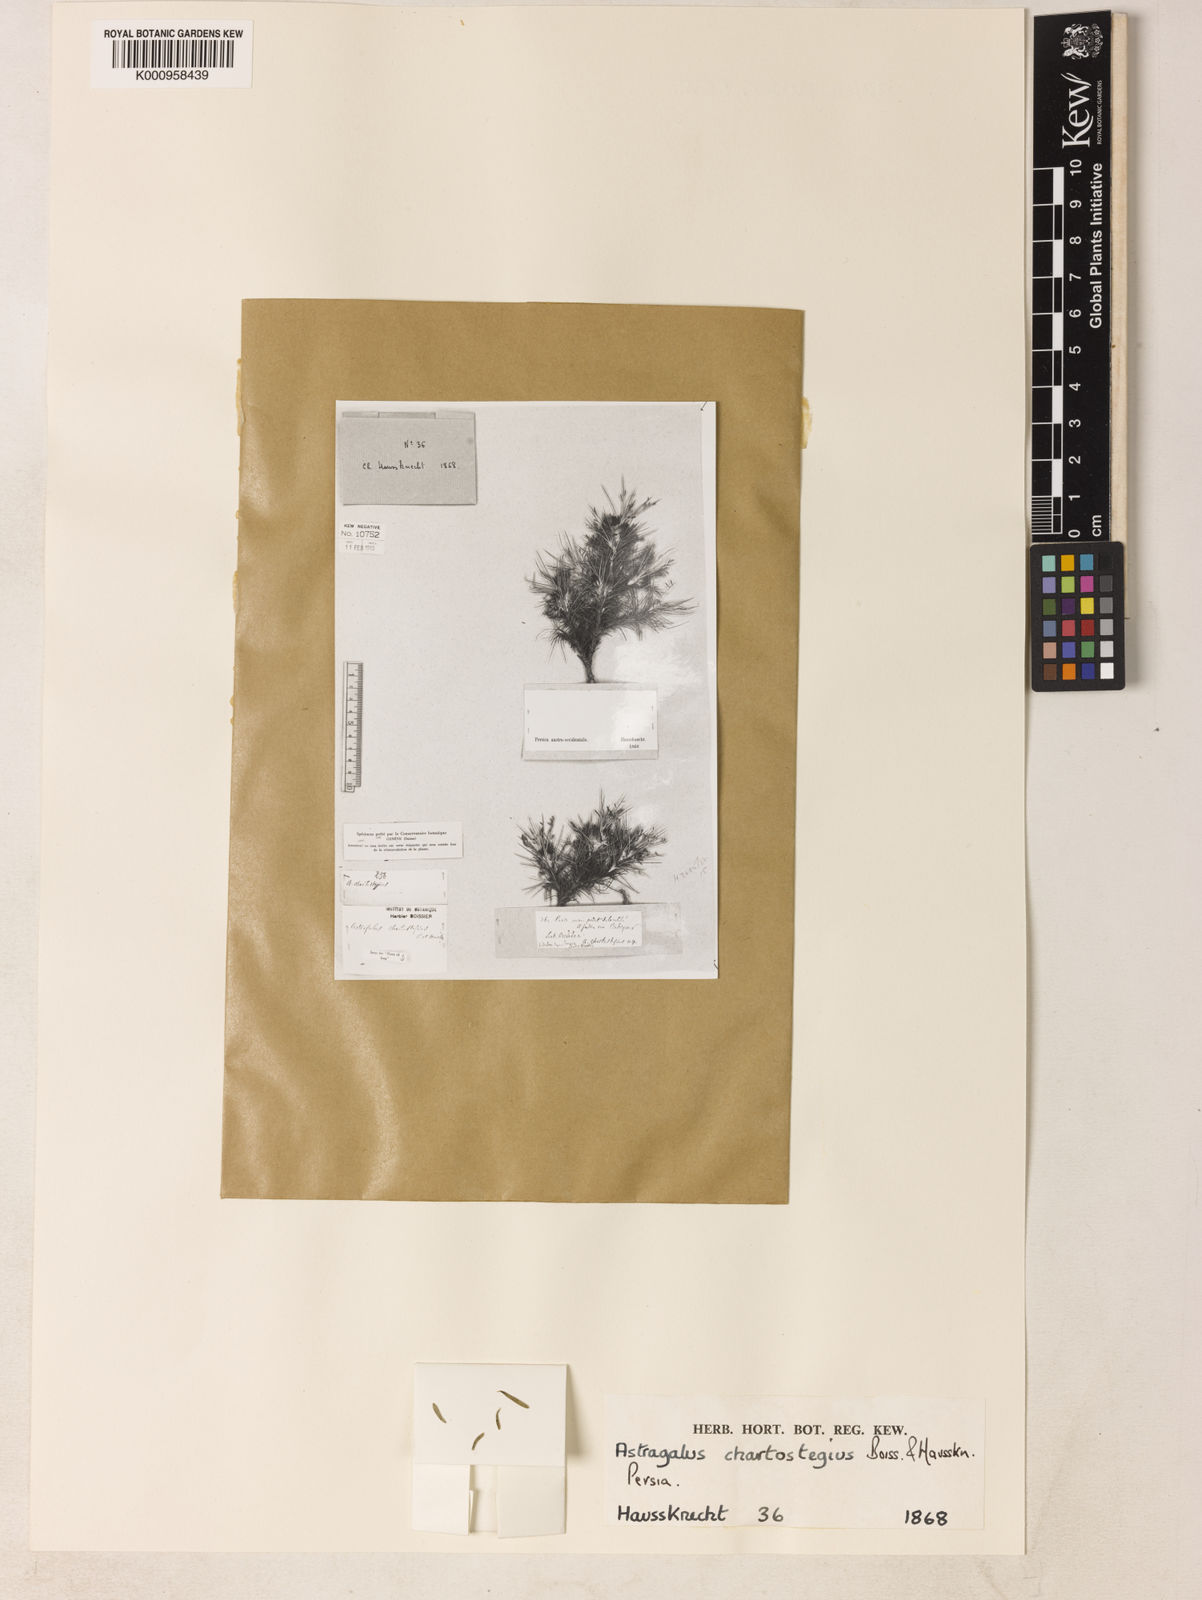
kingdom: Plantae
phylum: Tracheophyta
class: Magnoliopsida
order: Fabales
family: Fabaceae
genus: Astragalus
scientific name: Astragalus chartostegius
